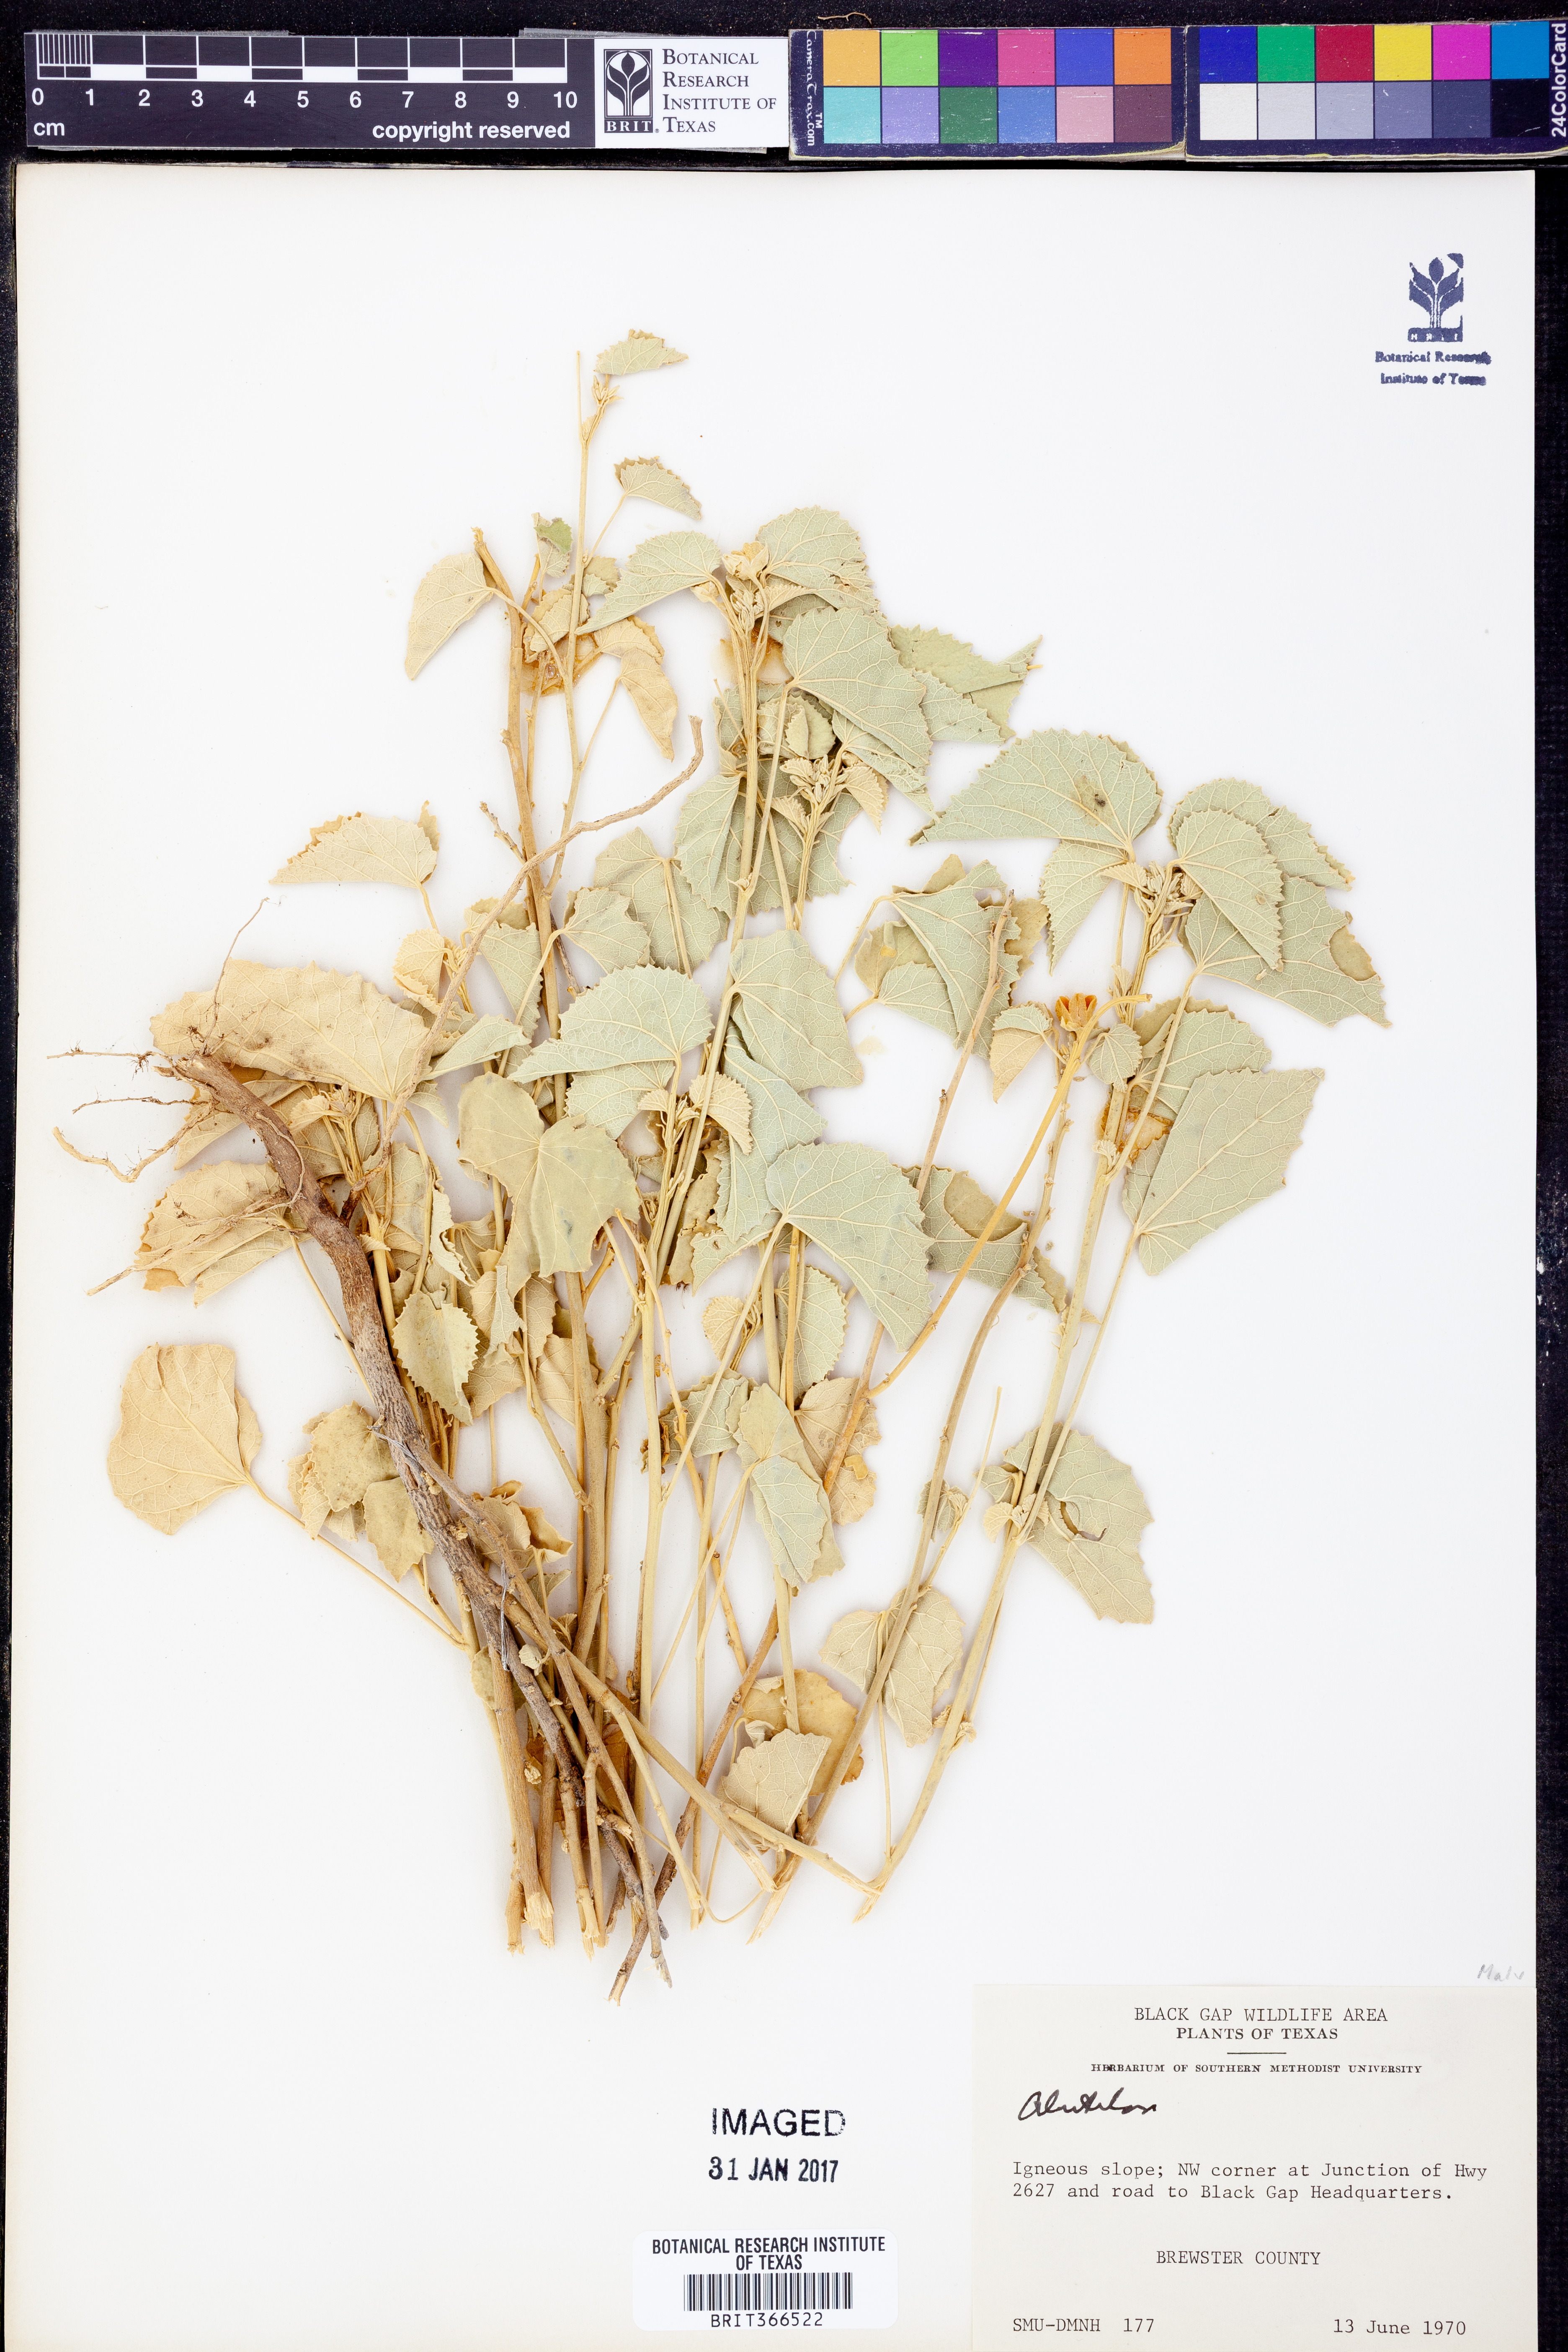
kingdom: Plantae
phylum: Tracheophyta
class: Magnoliopsida
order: Malvales
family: Malvaceae
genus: Abutilon
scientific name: Abutilon
